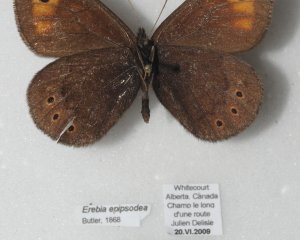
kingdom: Animalia
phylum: Arthropoda
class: Insecta
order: Lepidoptera
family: Nymphalidae
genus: Erebia
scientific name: Erebia epipsodea
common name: Common Alpine
